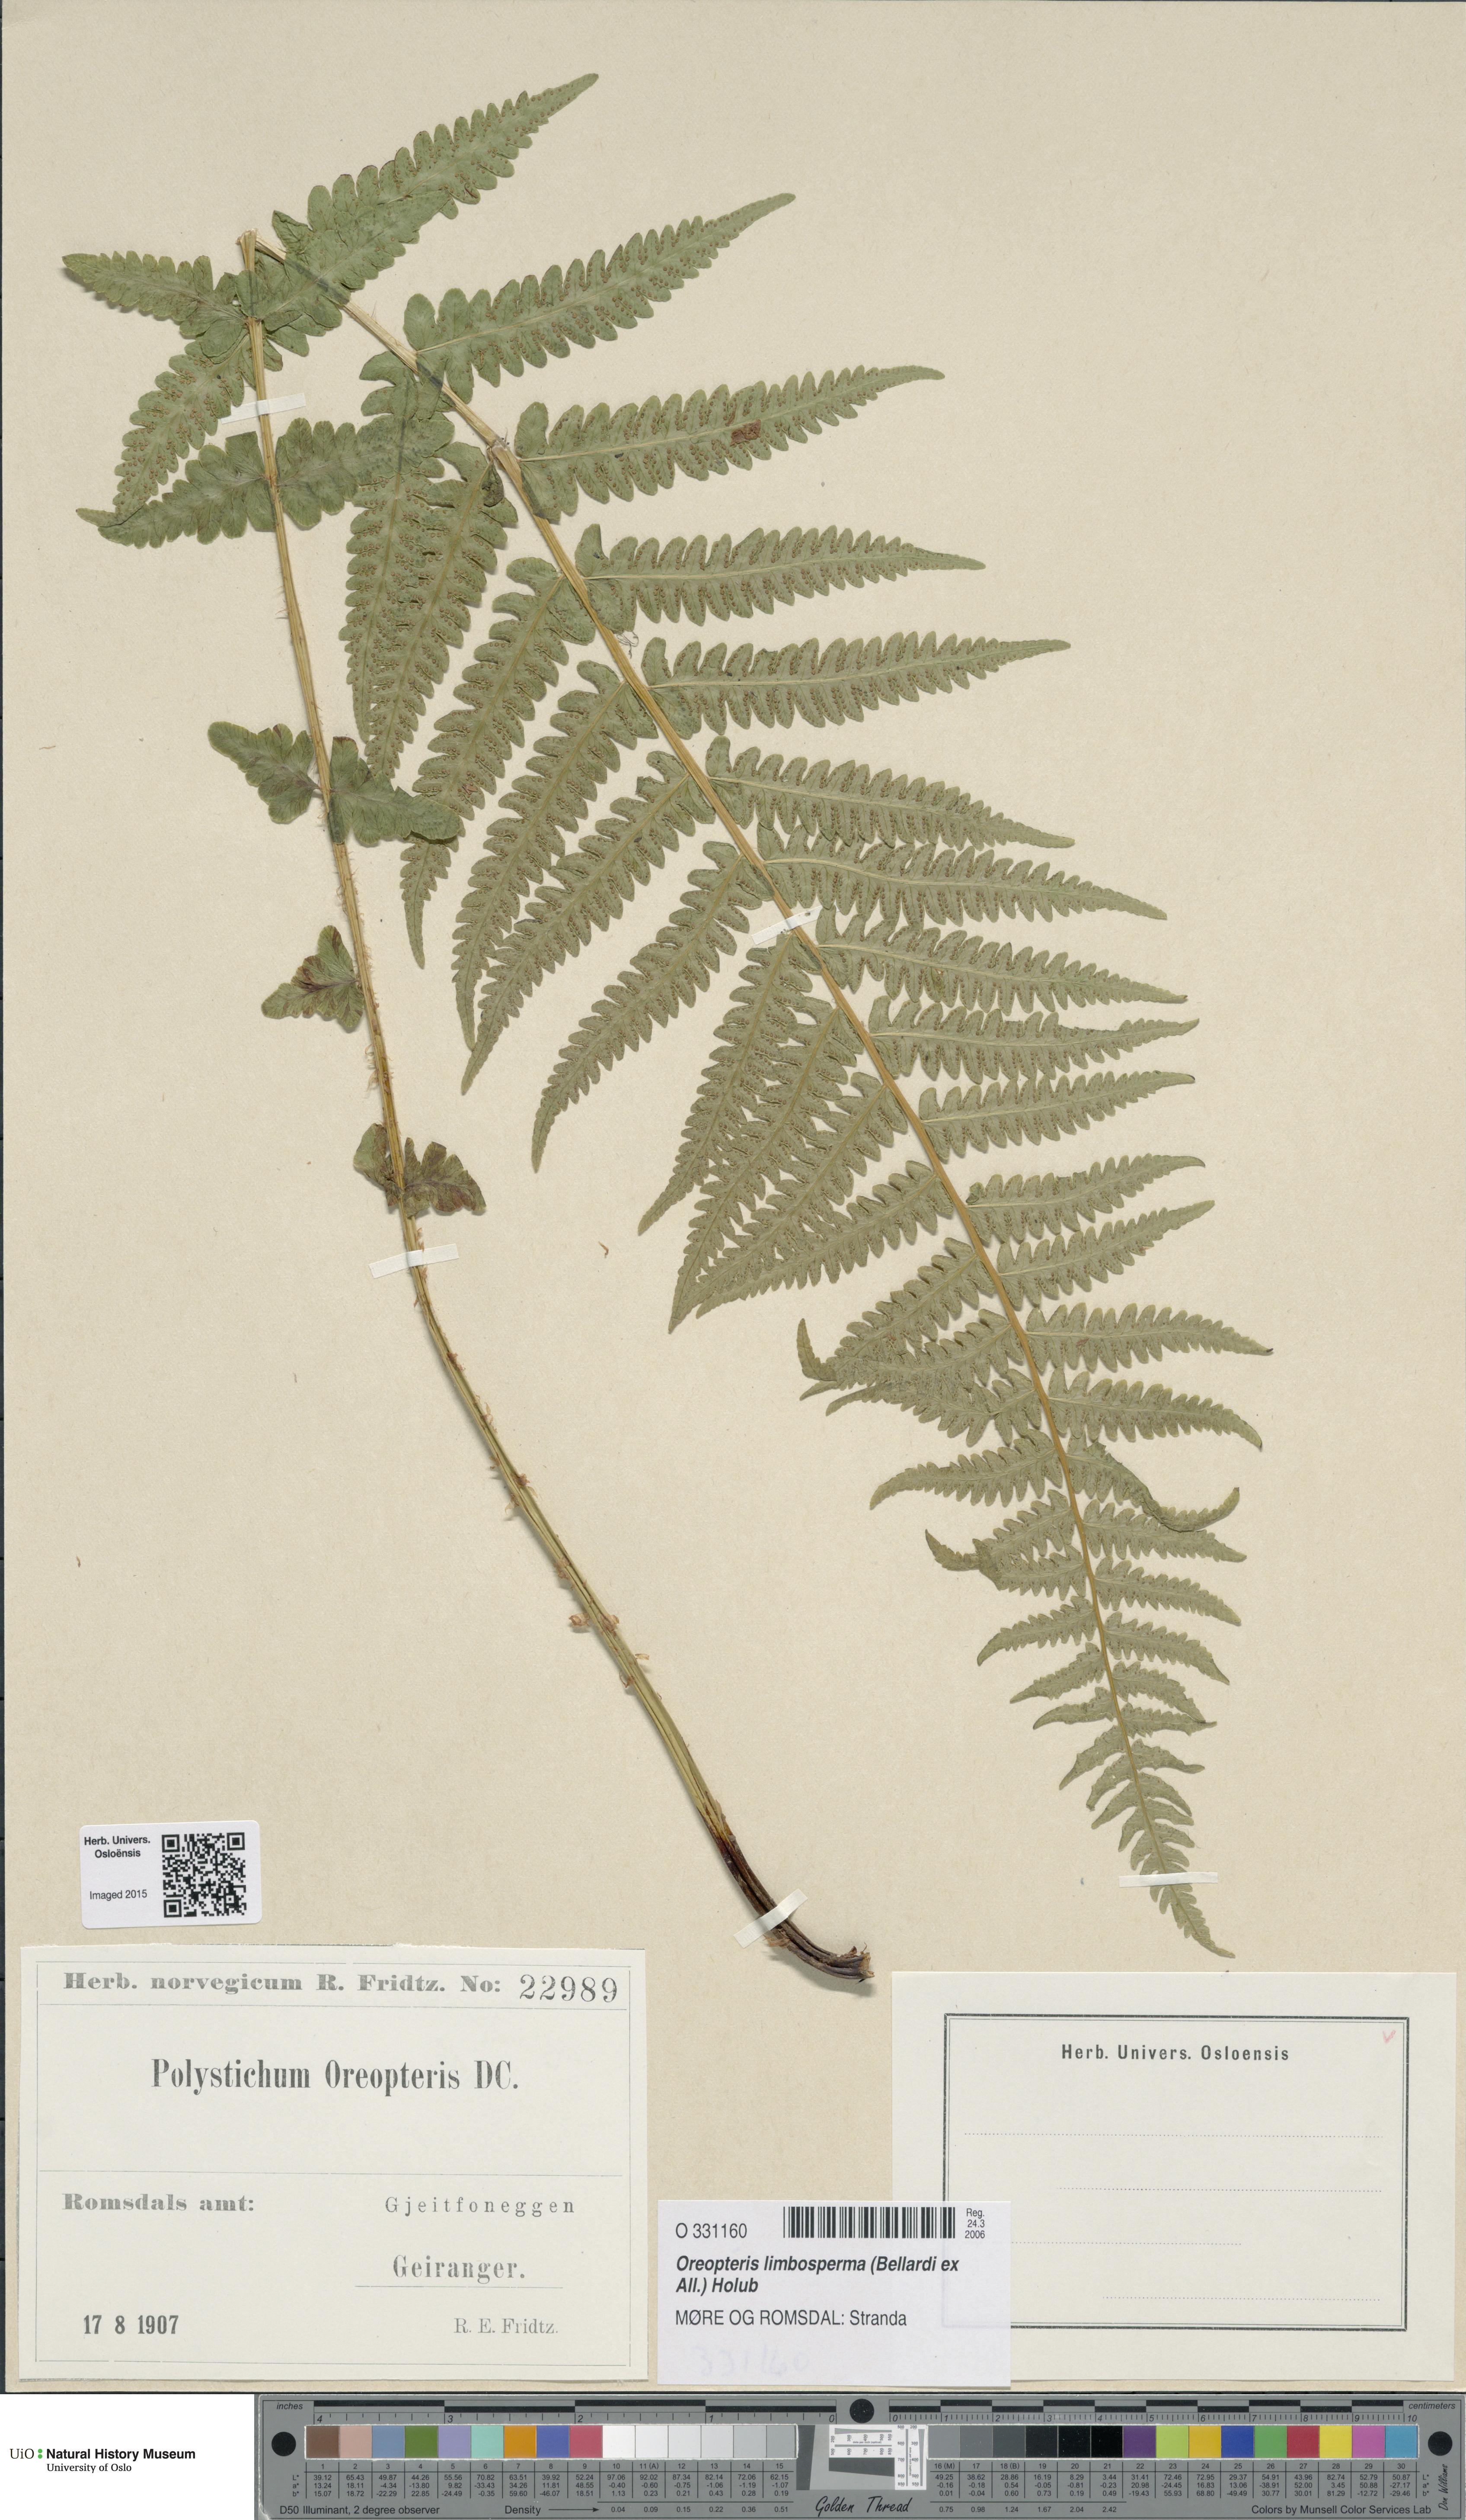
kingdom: Plantae
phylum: Tracheophyta
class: Polypodiopsida
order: Polypodiales
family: Thelypteridaceae
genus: Oreopteris
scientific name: Oreopteris limbosperma
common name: Lemon-scented fern
